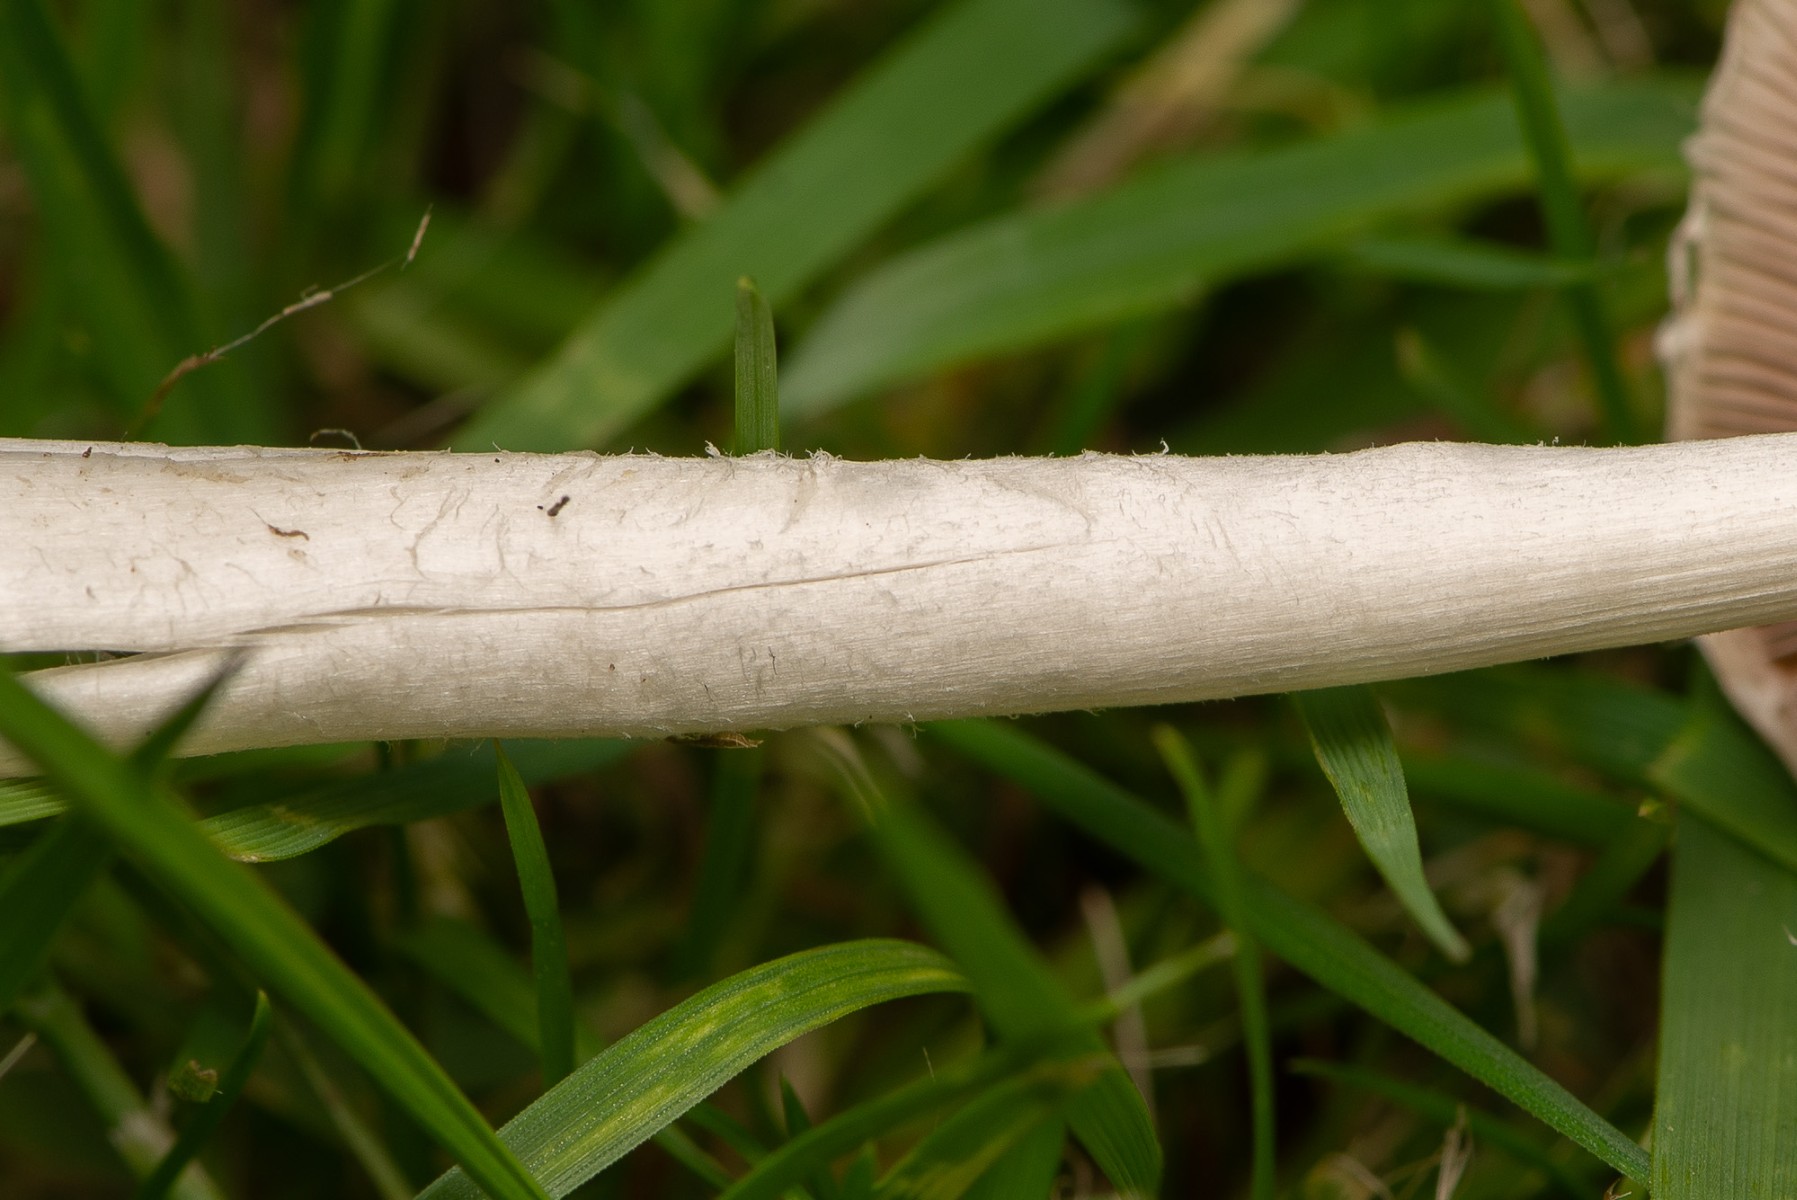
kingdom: Fungi
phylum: Basidiomycota
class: Agaricomycetes
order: Agaricales
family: Psathyrellaceae
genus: Candolleomyces
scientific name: Candolleomyces candolleanus
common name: Candolles mørkhat
